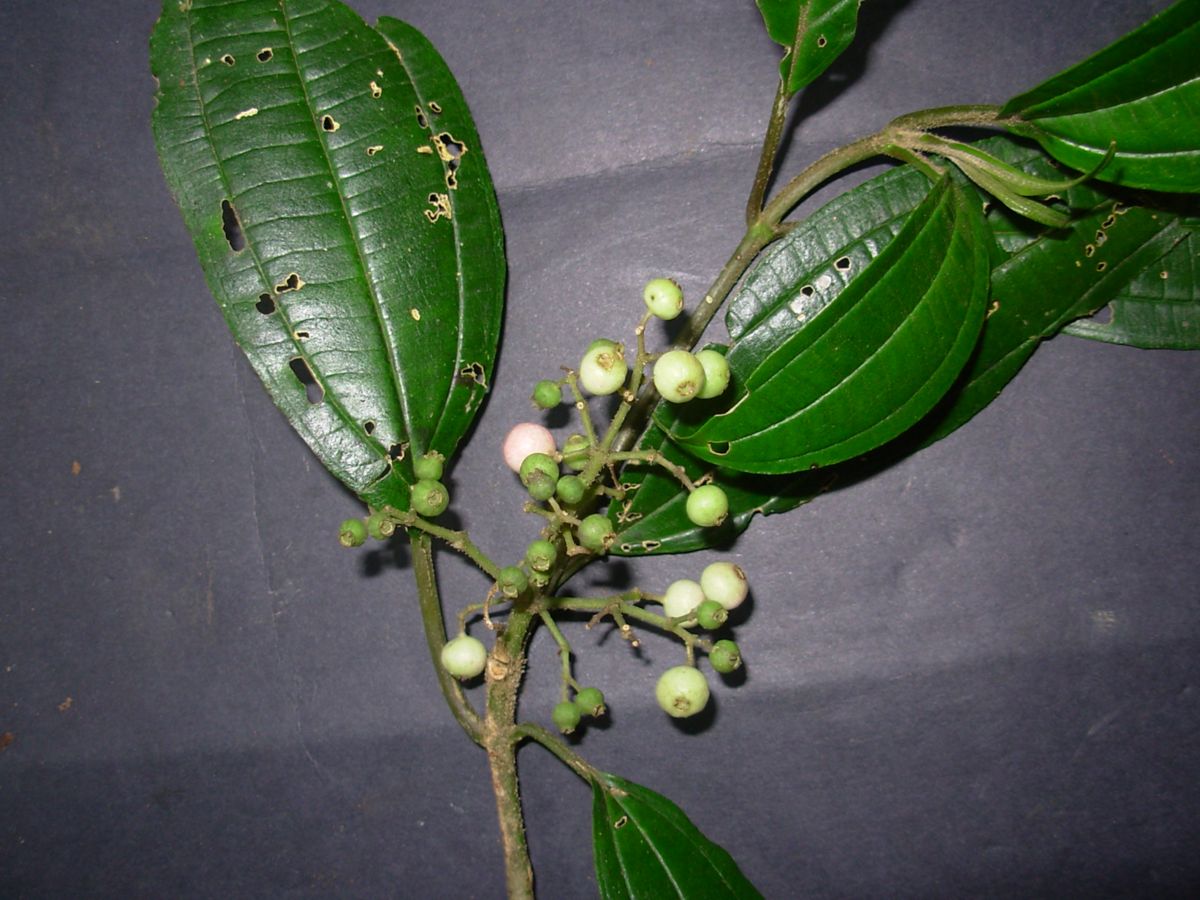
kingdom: Plantae
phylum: Tracheophyta
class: Magnoliopsida
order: Myrtales
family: Melastomataceae
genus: Miconia
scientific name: Miconia sterilis
